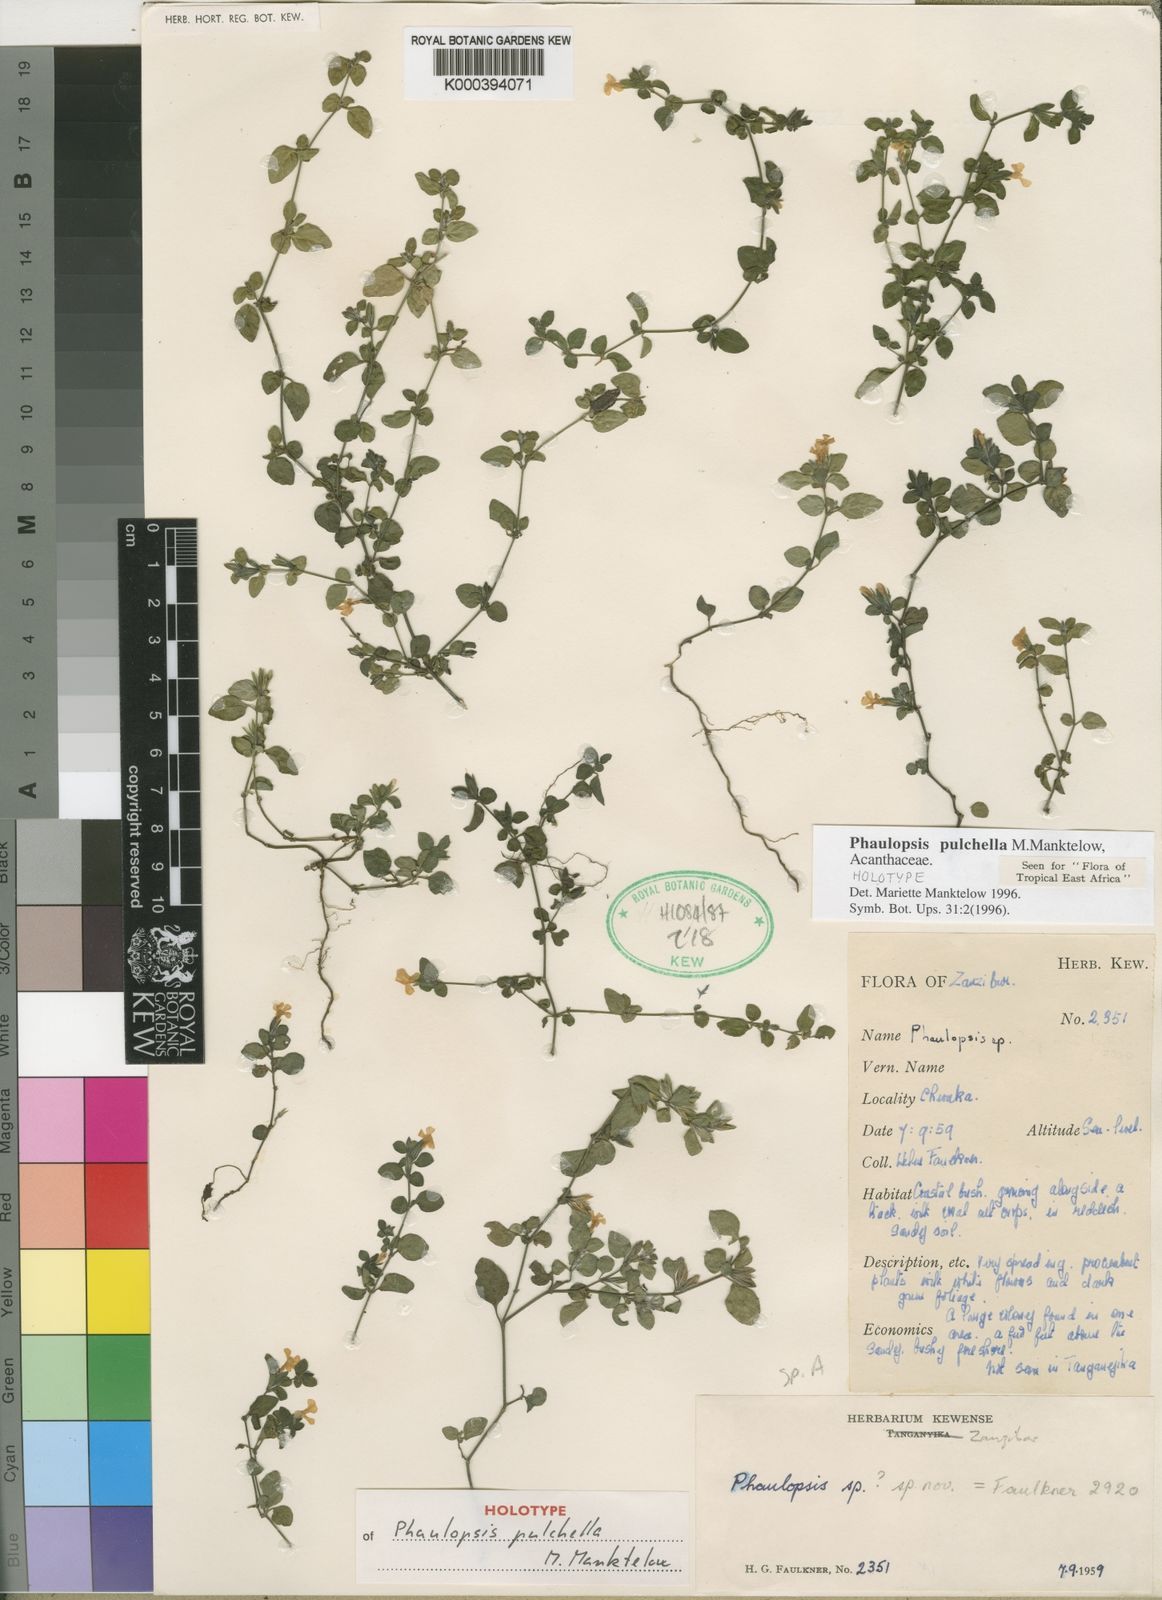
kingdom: Plantae
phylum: Tracheophyta
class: Magnoliopsida
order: Lamiales
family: Acanthaceae
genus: Phaulopsis
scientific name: Phaulopsis pulchella
